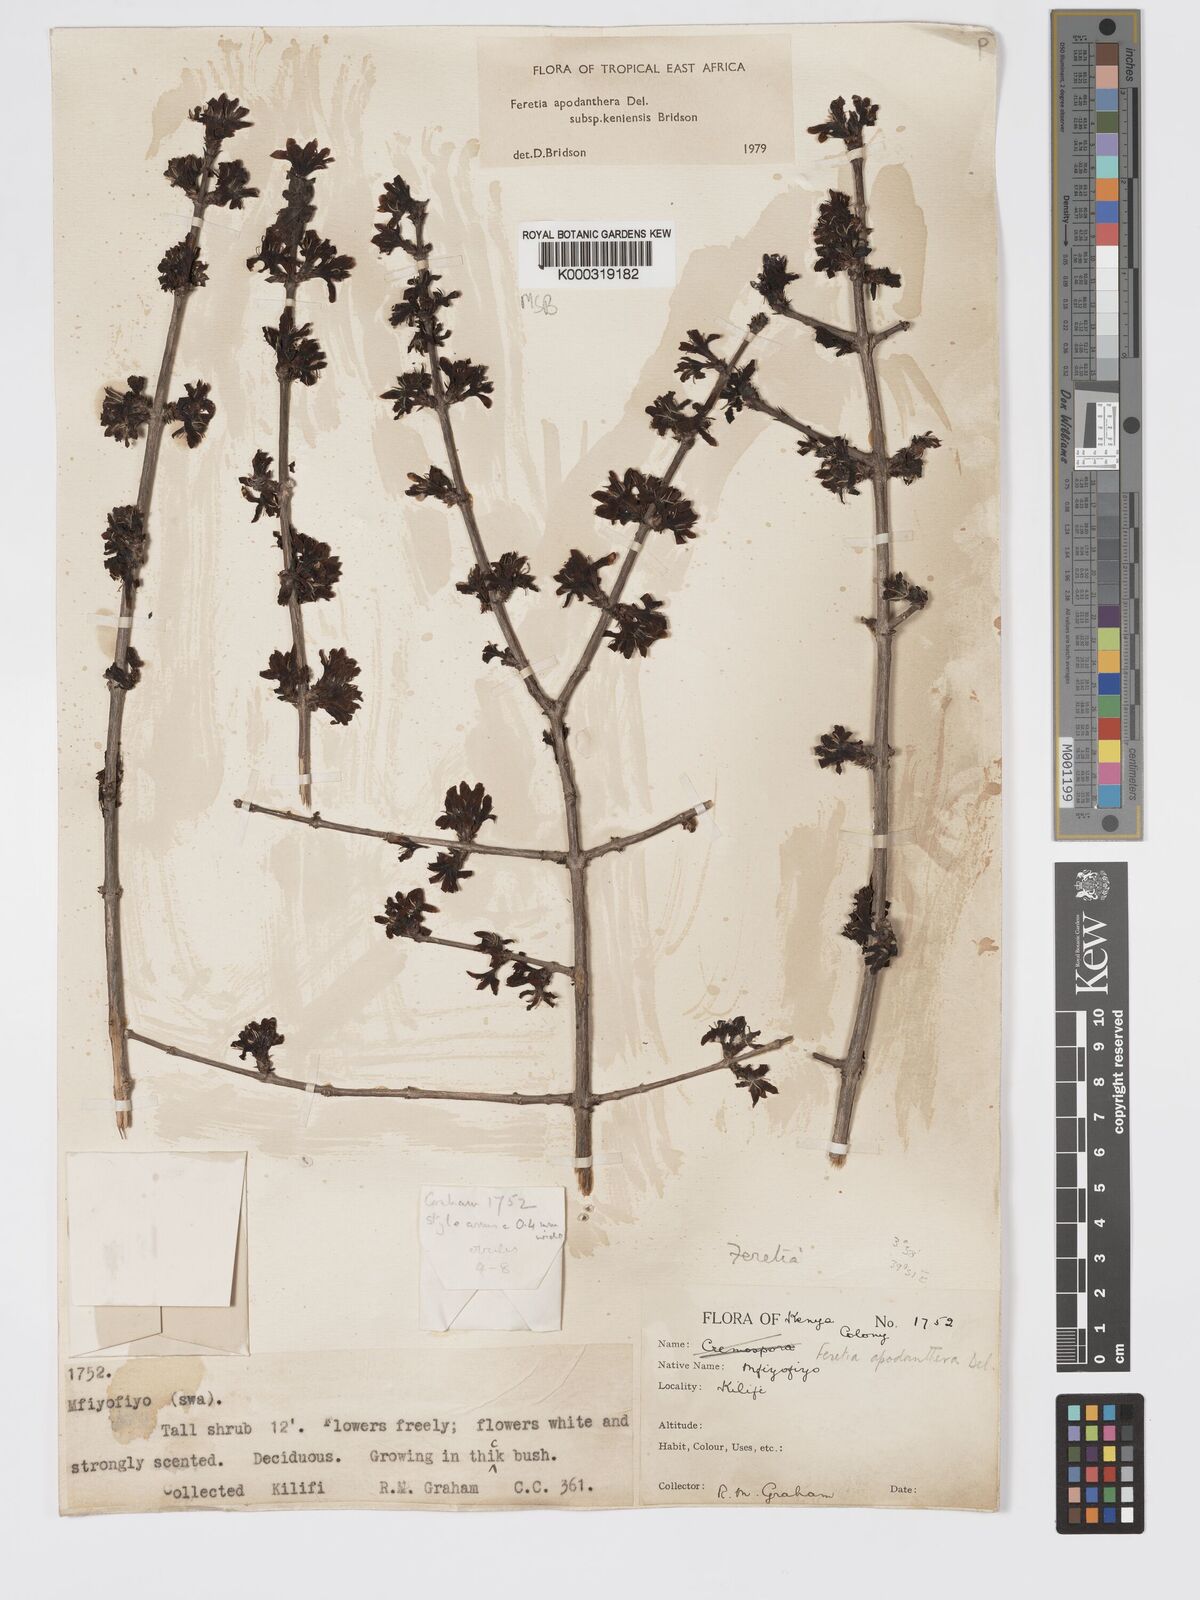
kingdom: Plantae
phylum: Tracheophyta
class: Magnoliopsida
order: Gentianales
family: Rubiaceae
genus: Feretia
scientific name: Feretia apodanthera
